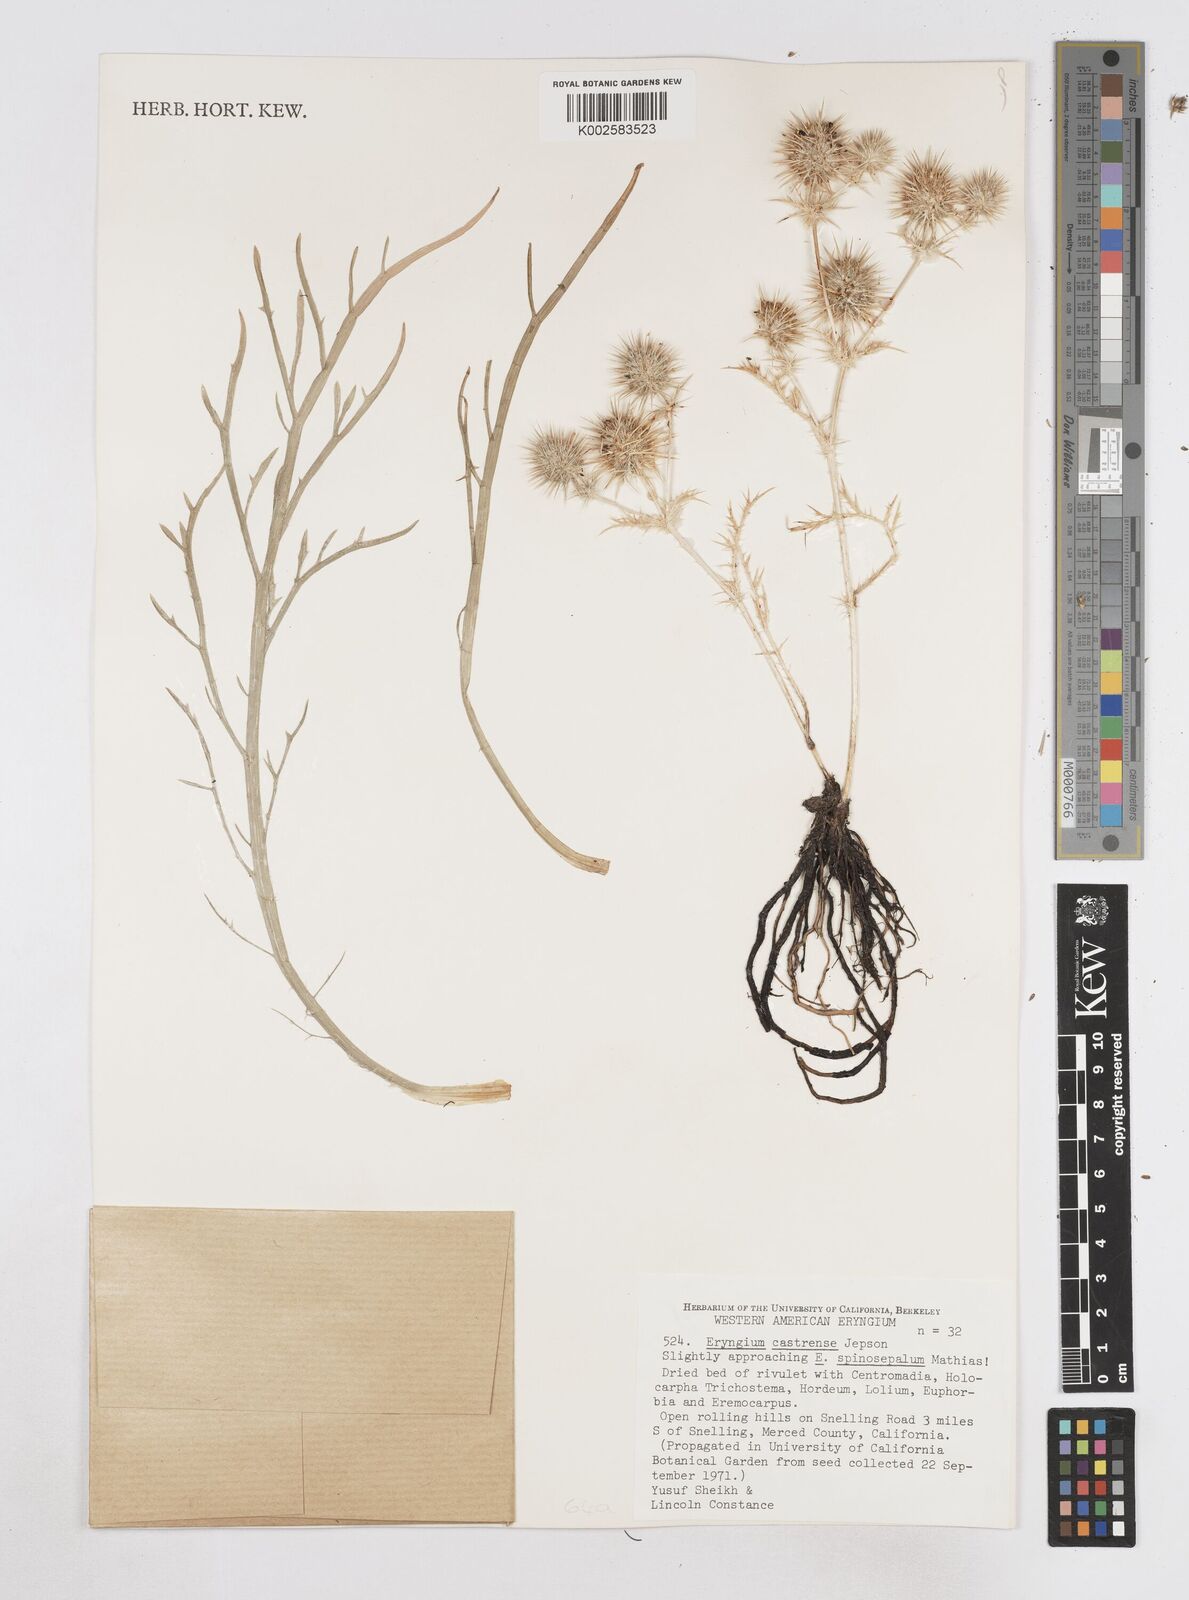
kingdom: Plantae
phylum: Tracheophyta
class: Magnoliopsida
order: Apiales
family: Apiaceae
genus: Eryngium
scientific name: Eryngium castrense
